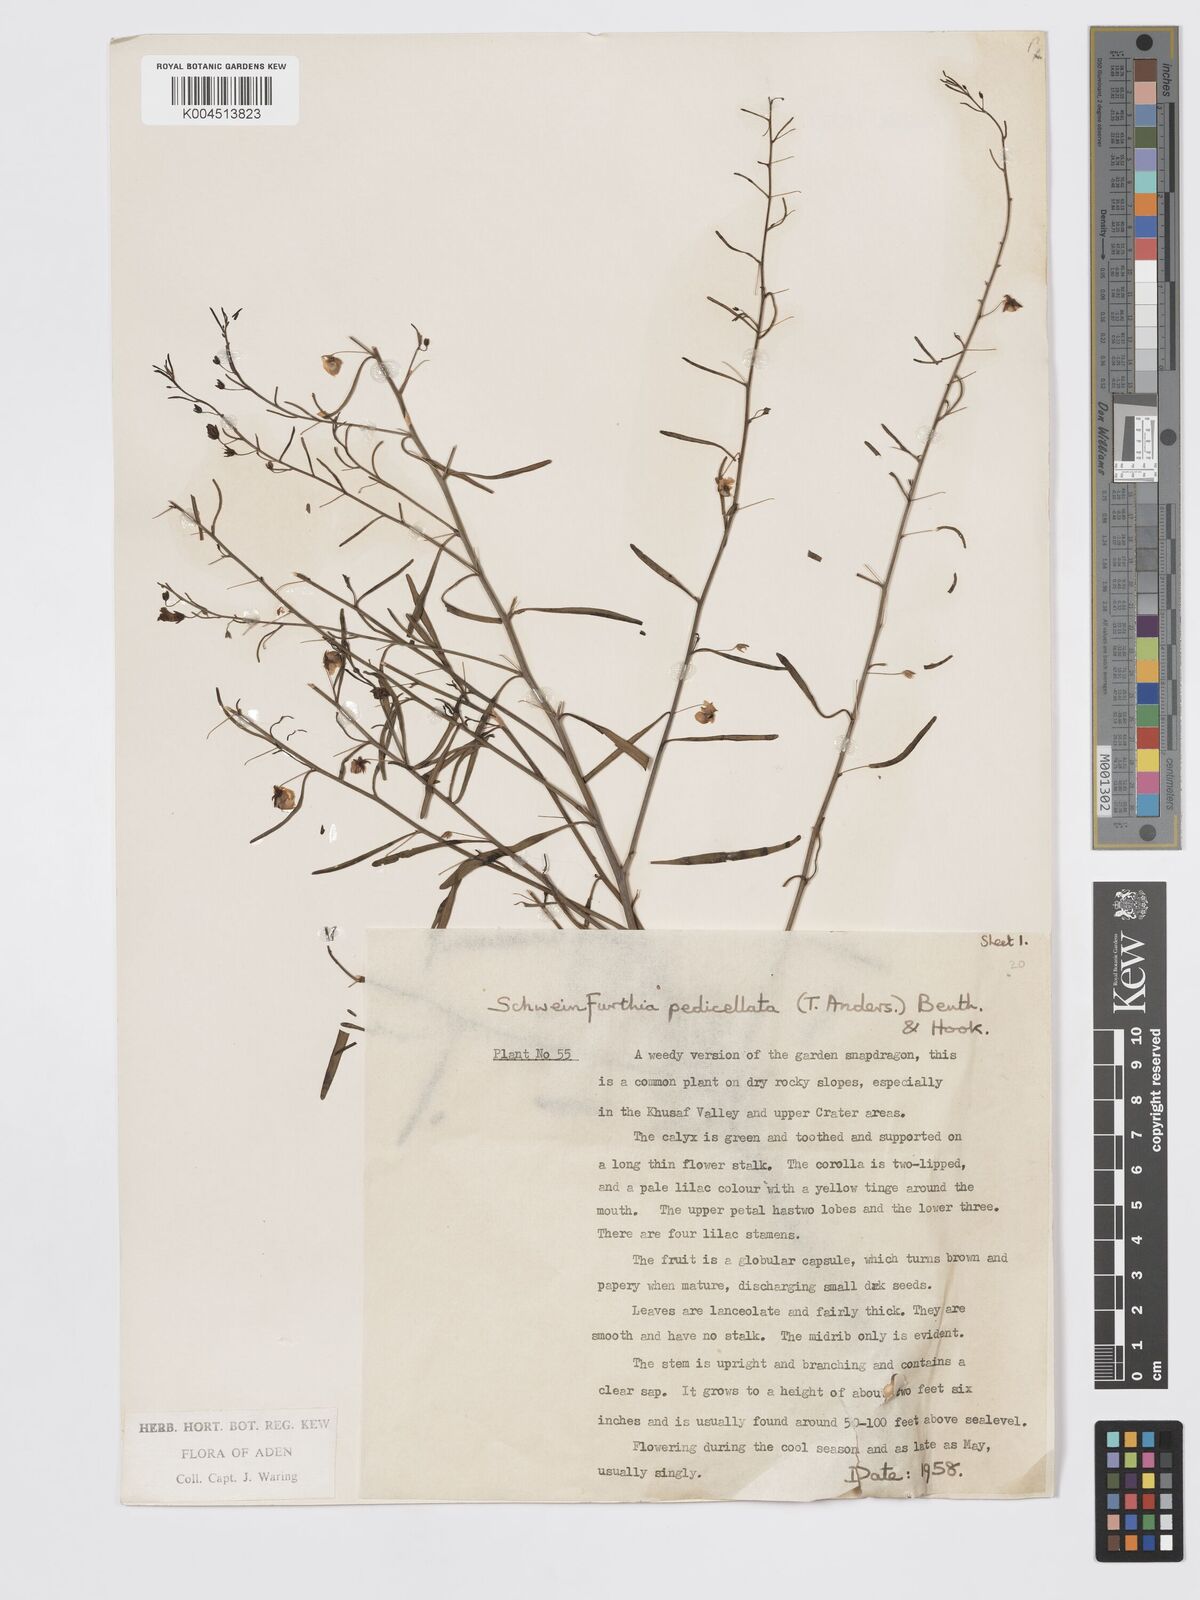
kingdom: Plantae
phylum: Tracheophyta
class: Magnoliopsida
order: Lamiales
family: Plantaginaceae
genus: Schweinfurthia
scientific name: Schweinfurthia pedicellata
